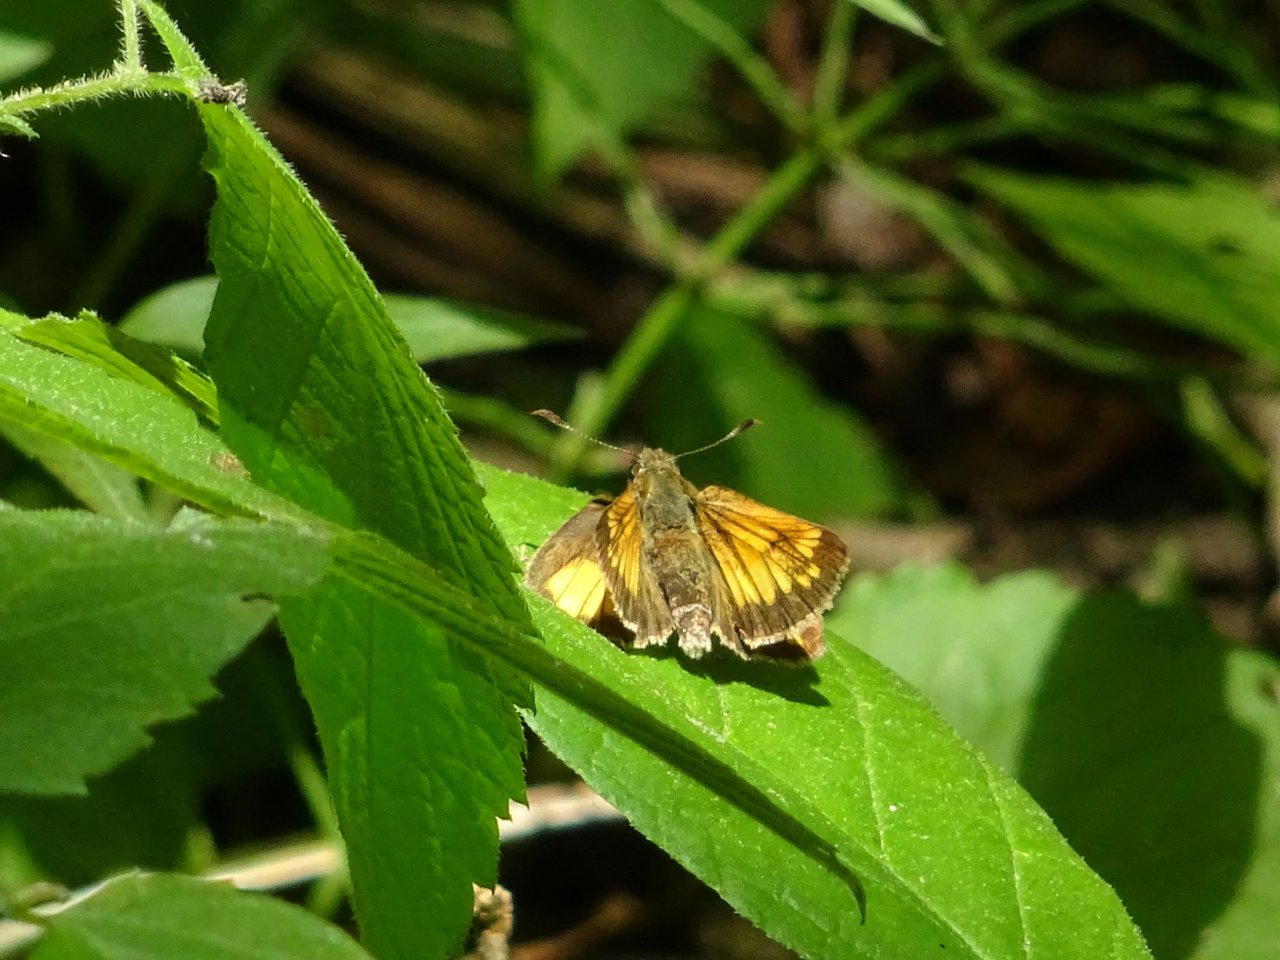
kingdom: Animalia
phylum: Arthropoda
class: Insecta
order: Lepidoptera
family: Hesperiidae
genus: Lon
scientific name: Lon hobomok
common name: Hobomok Skipper
